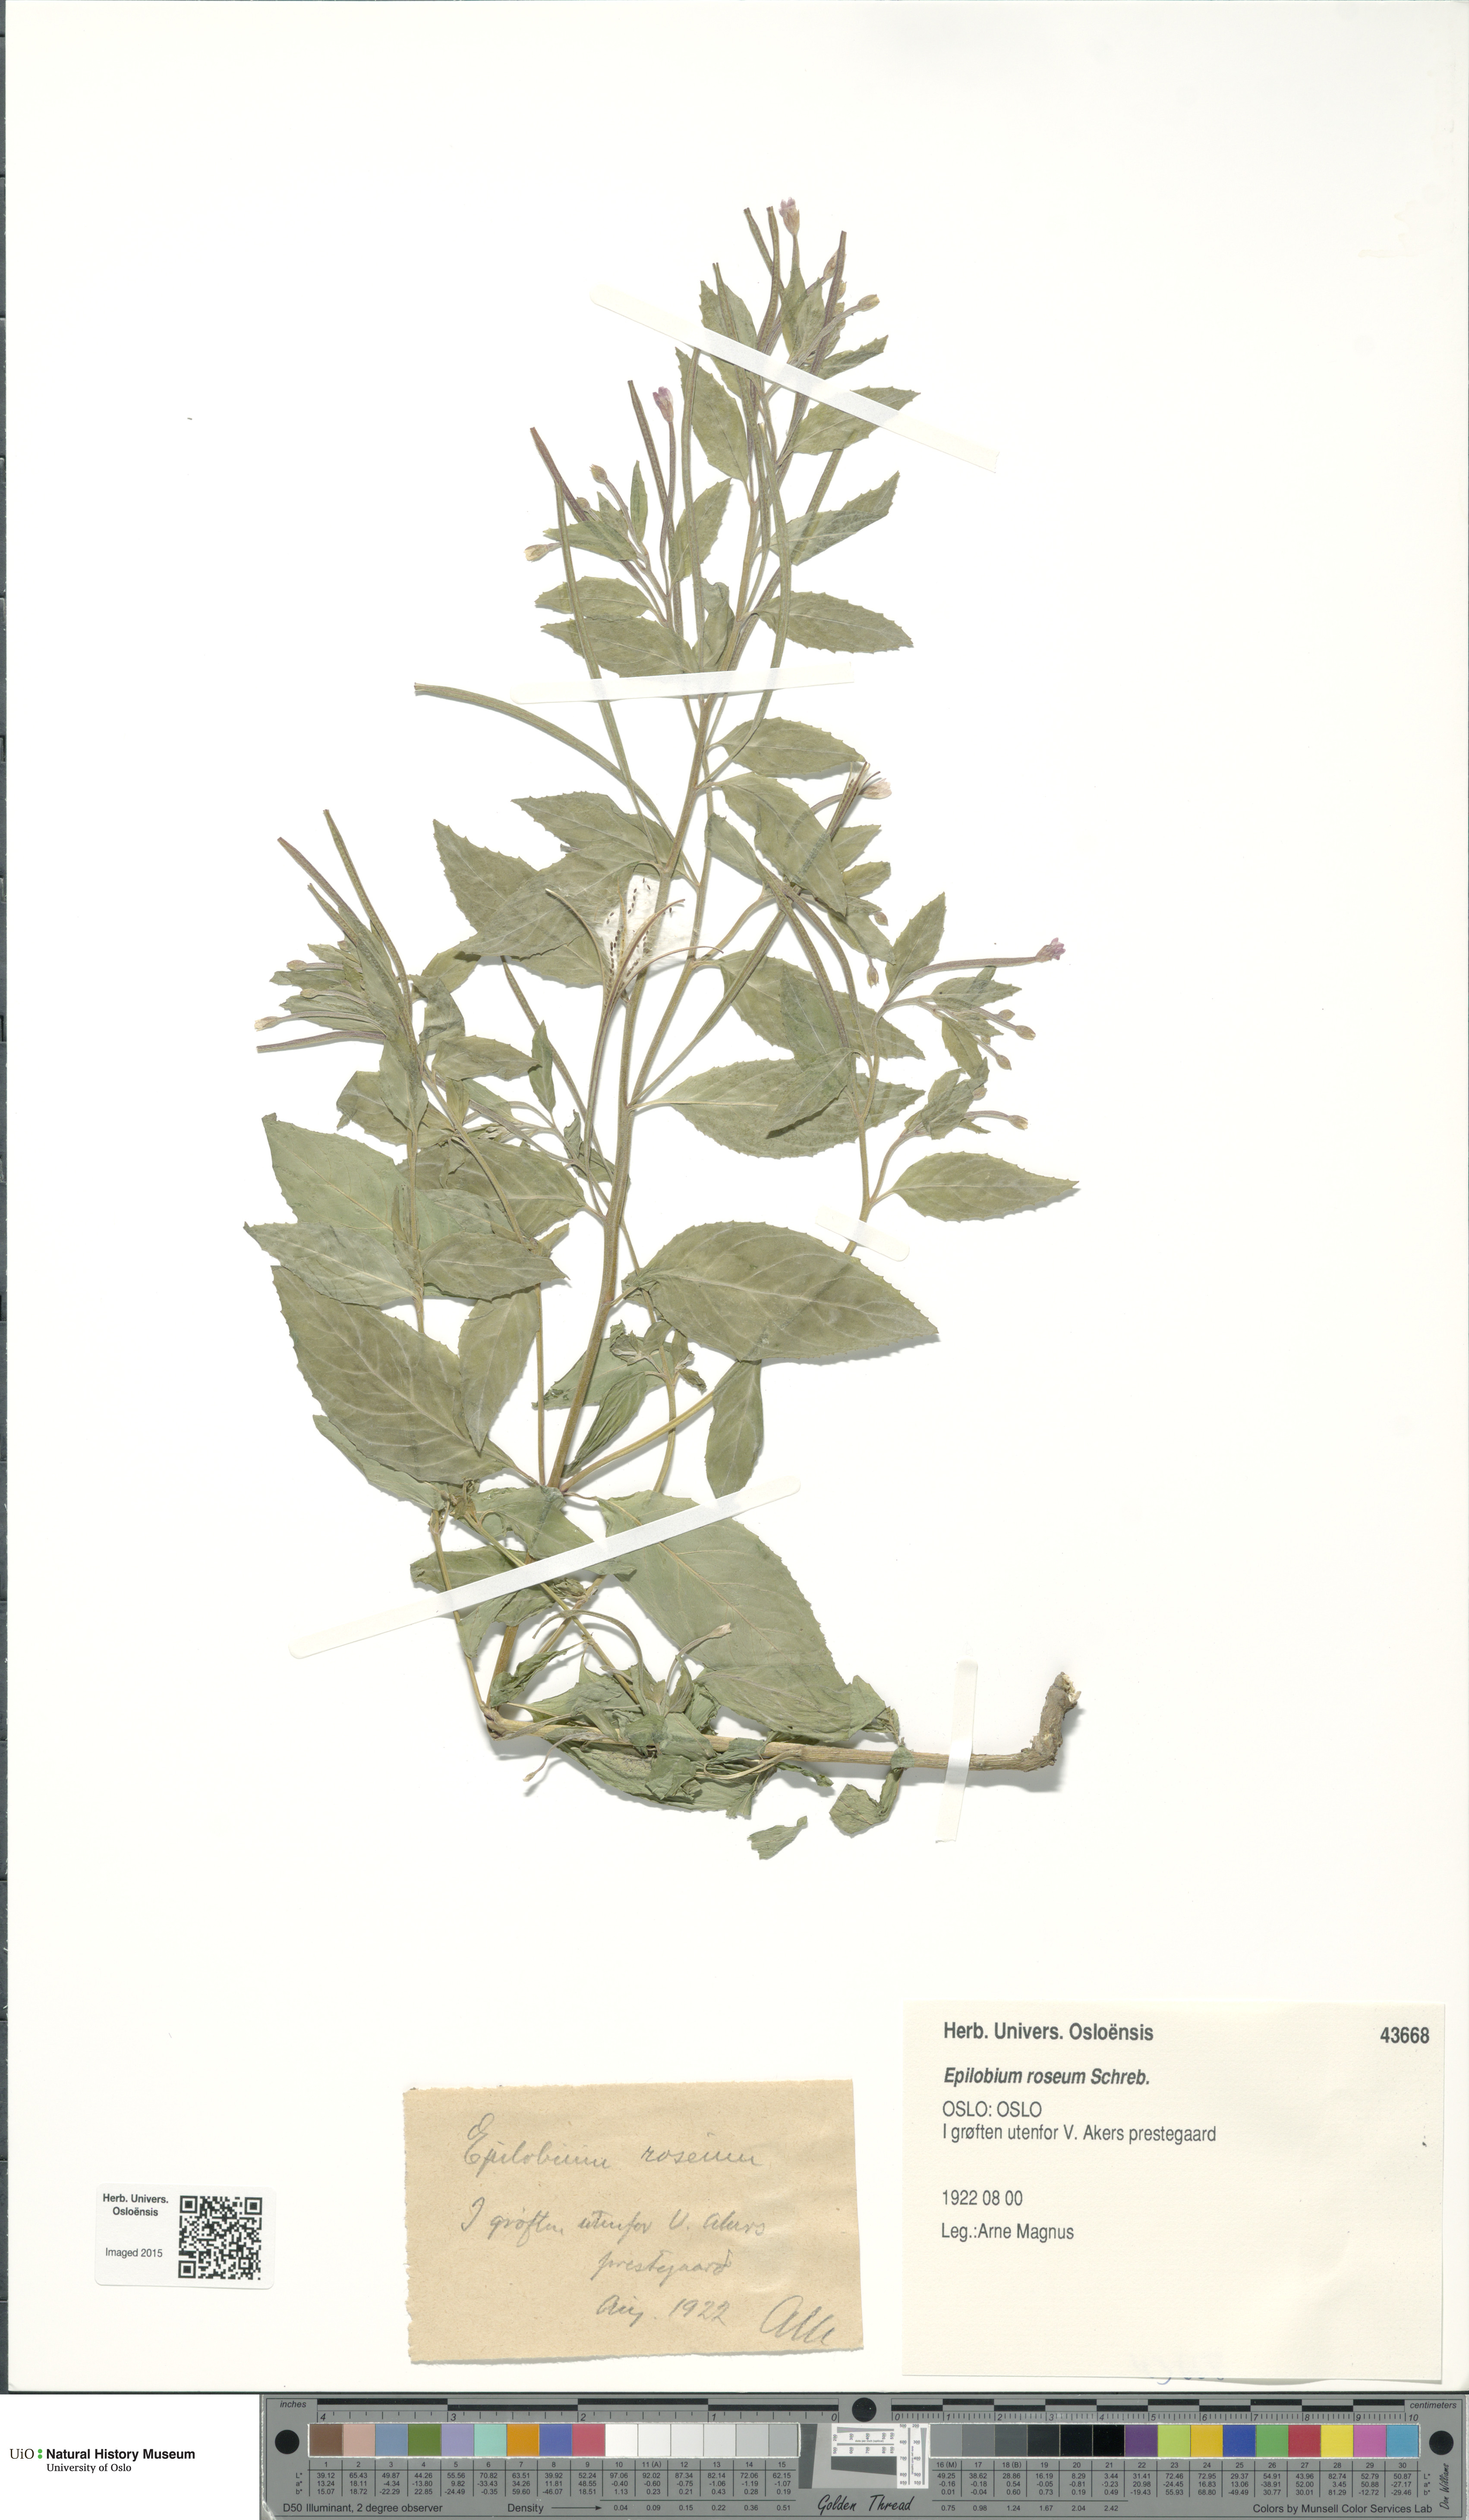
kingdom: Plantae
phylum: Tracheophyta
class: Magnoliopsida
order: Myrtales
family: Onagraceae
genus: Epilobium
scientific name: Epilobium roseum
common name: Pale willowherb
